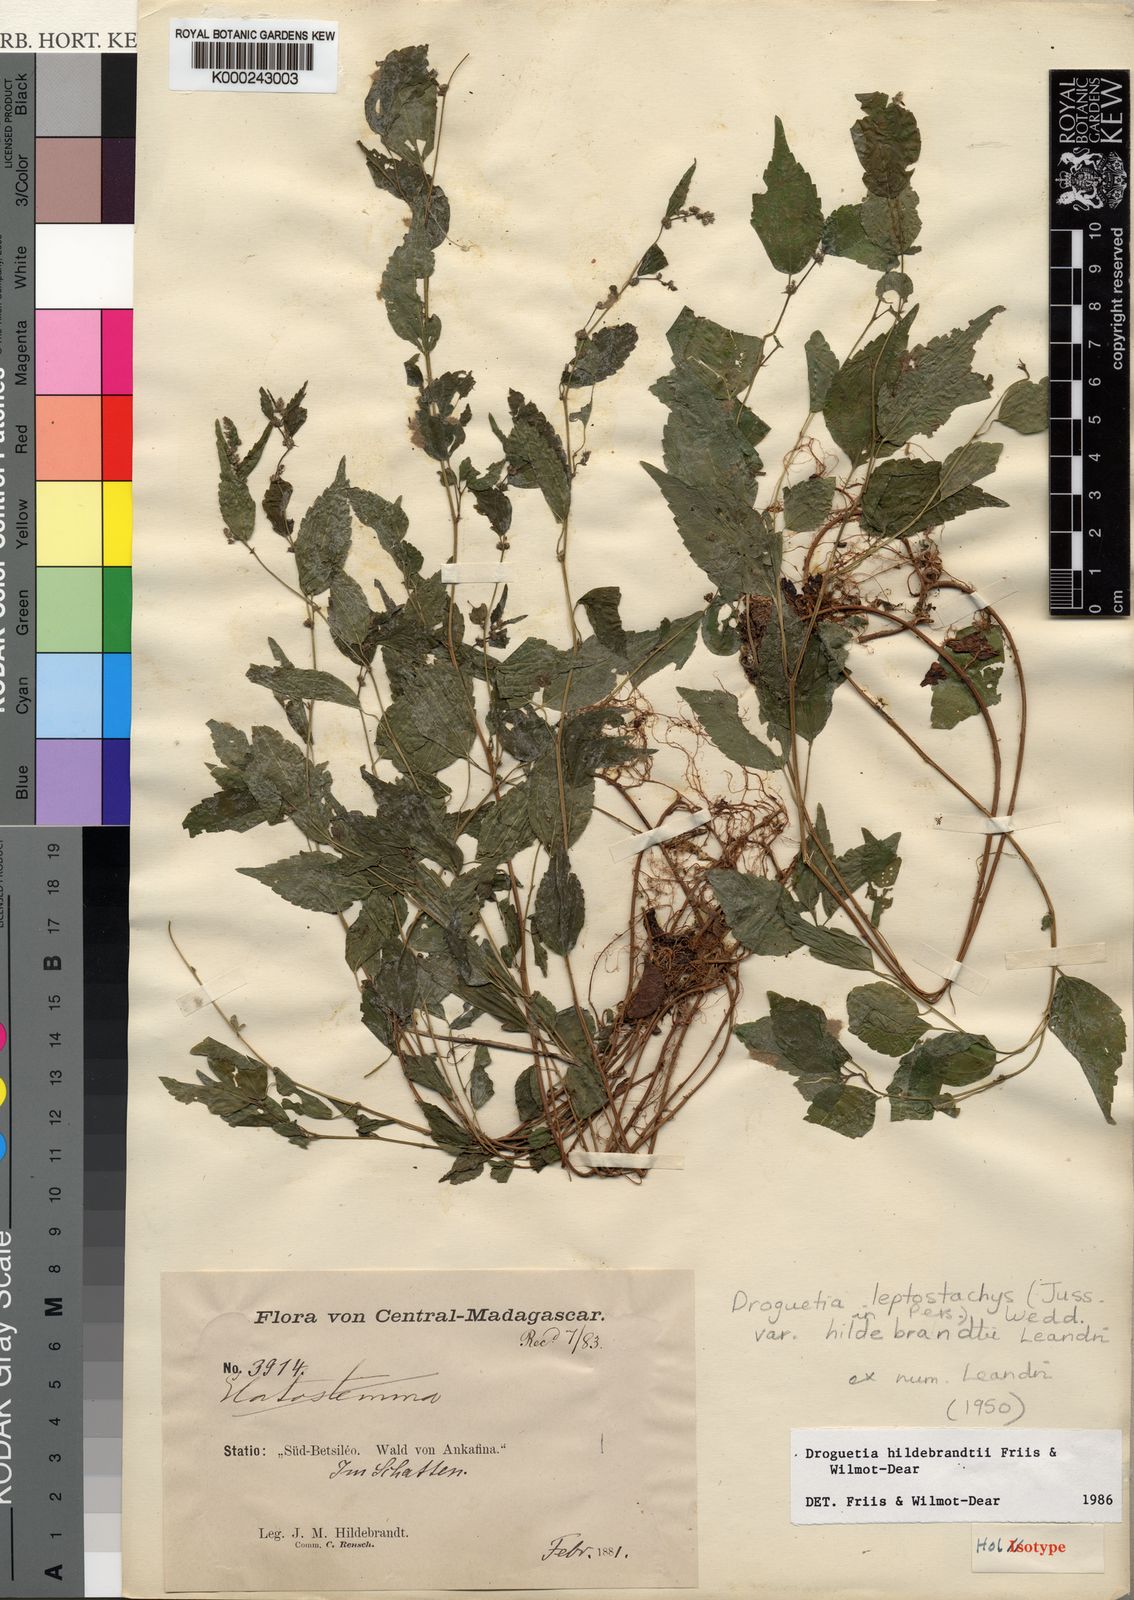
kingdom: Plantae
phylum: Tracheophyta
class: Magnoliopsida
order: Rosales
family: Urticaceae
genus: Droguetia
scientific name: Droguetia hildebrandtii
